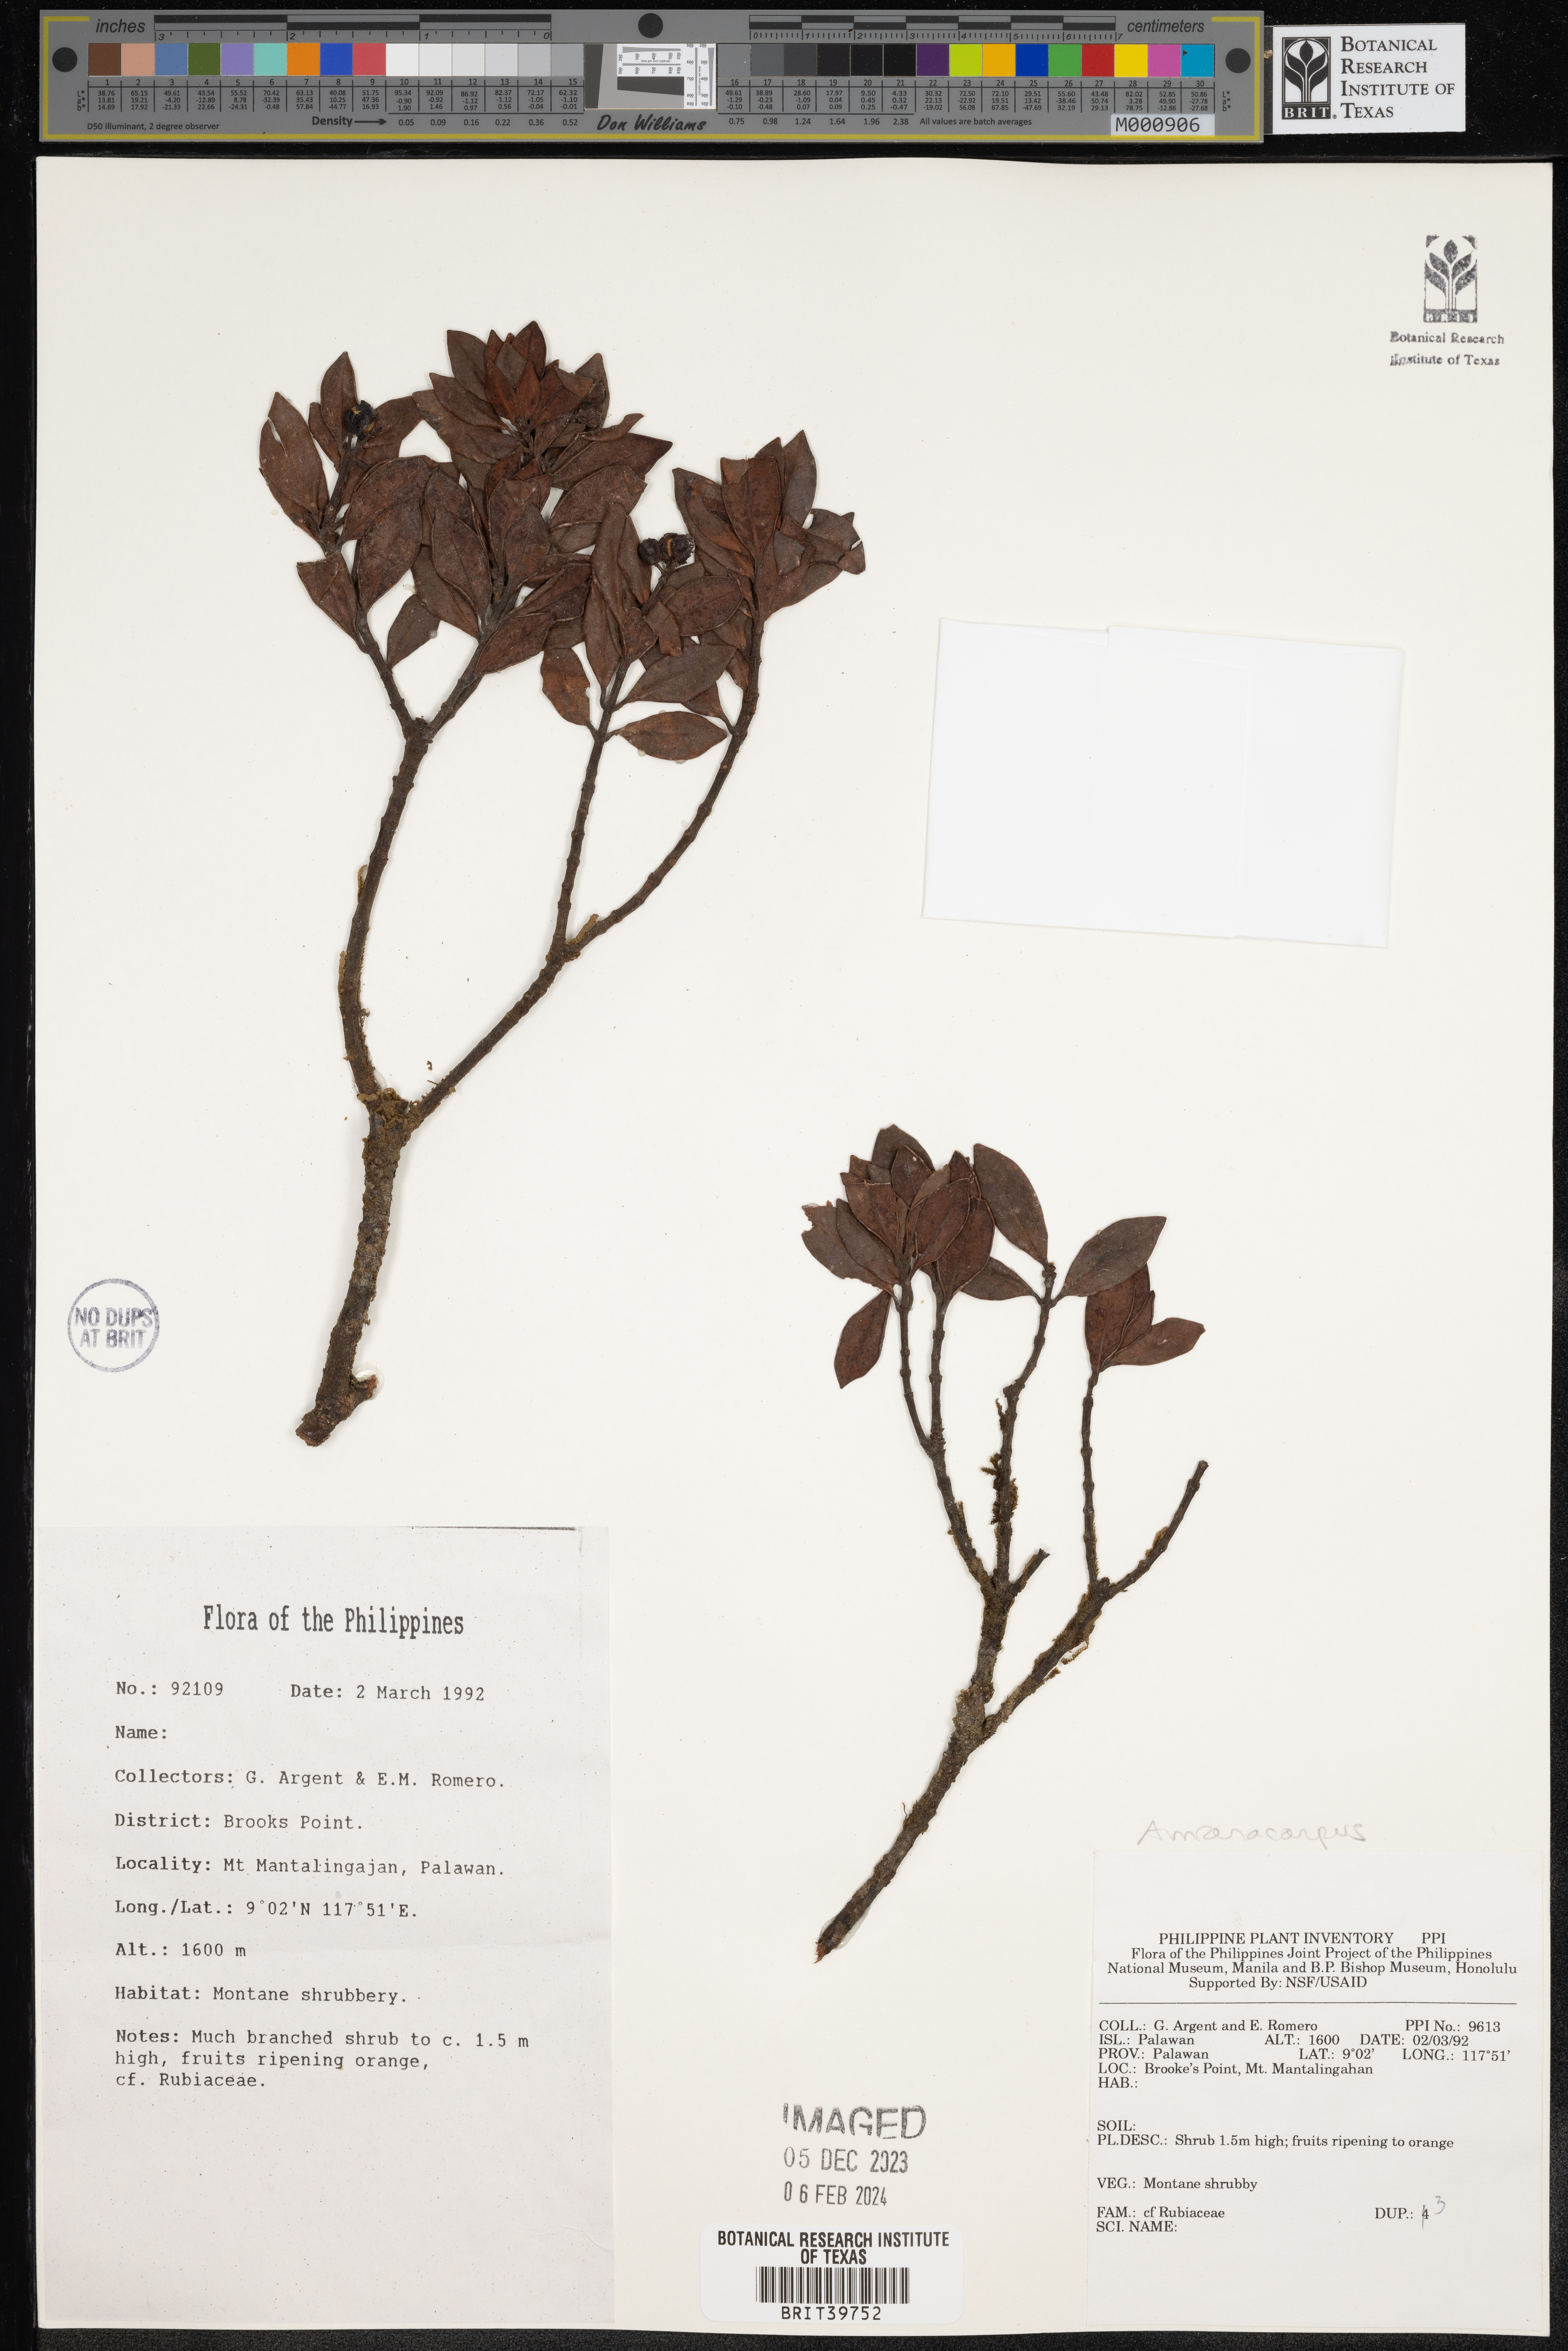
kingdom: Plantae
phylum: Tracheophyta
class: Magnoliopsida
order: Gentianales
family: Rubiaceae
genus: Amaracarpus
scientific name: Amaracarpus
